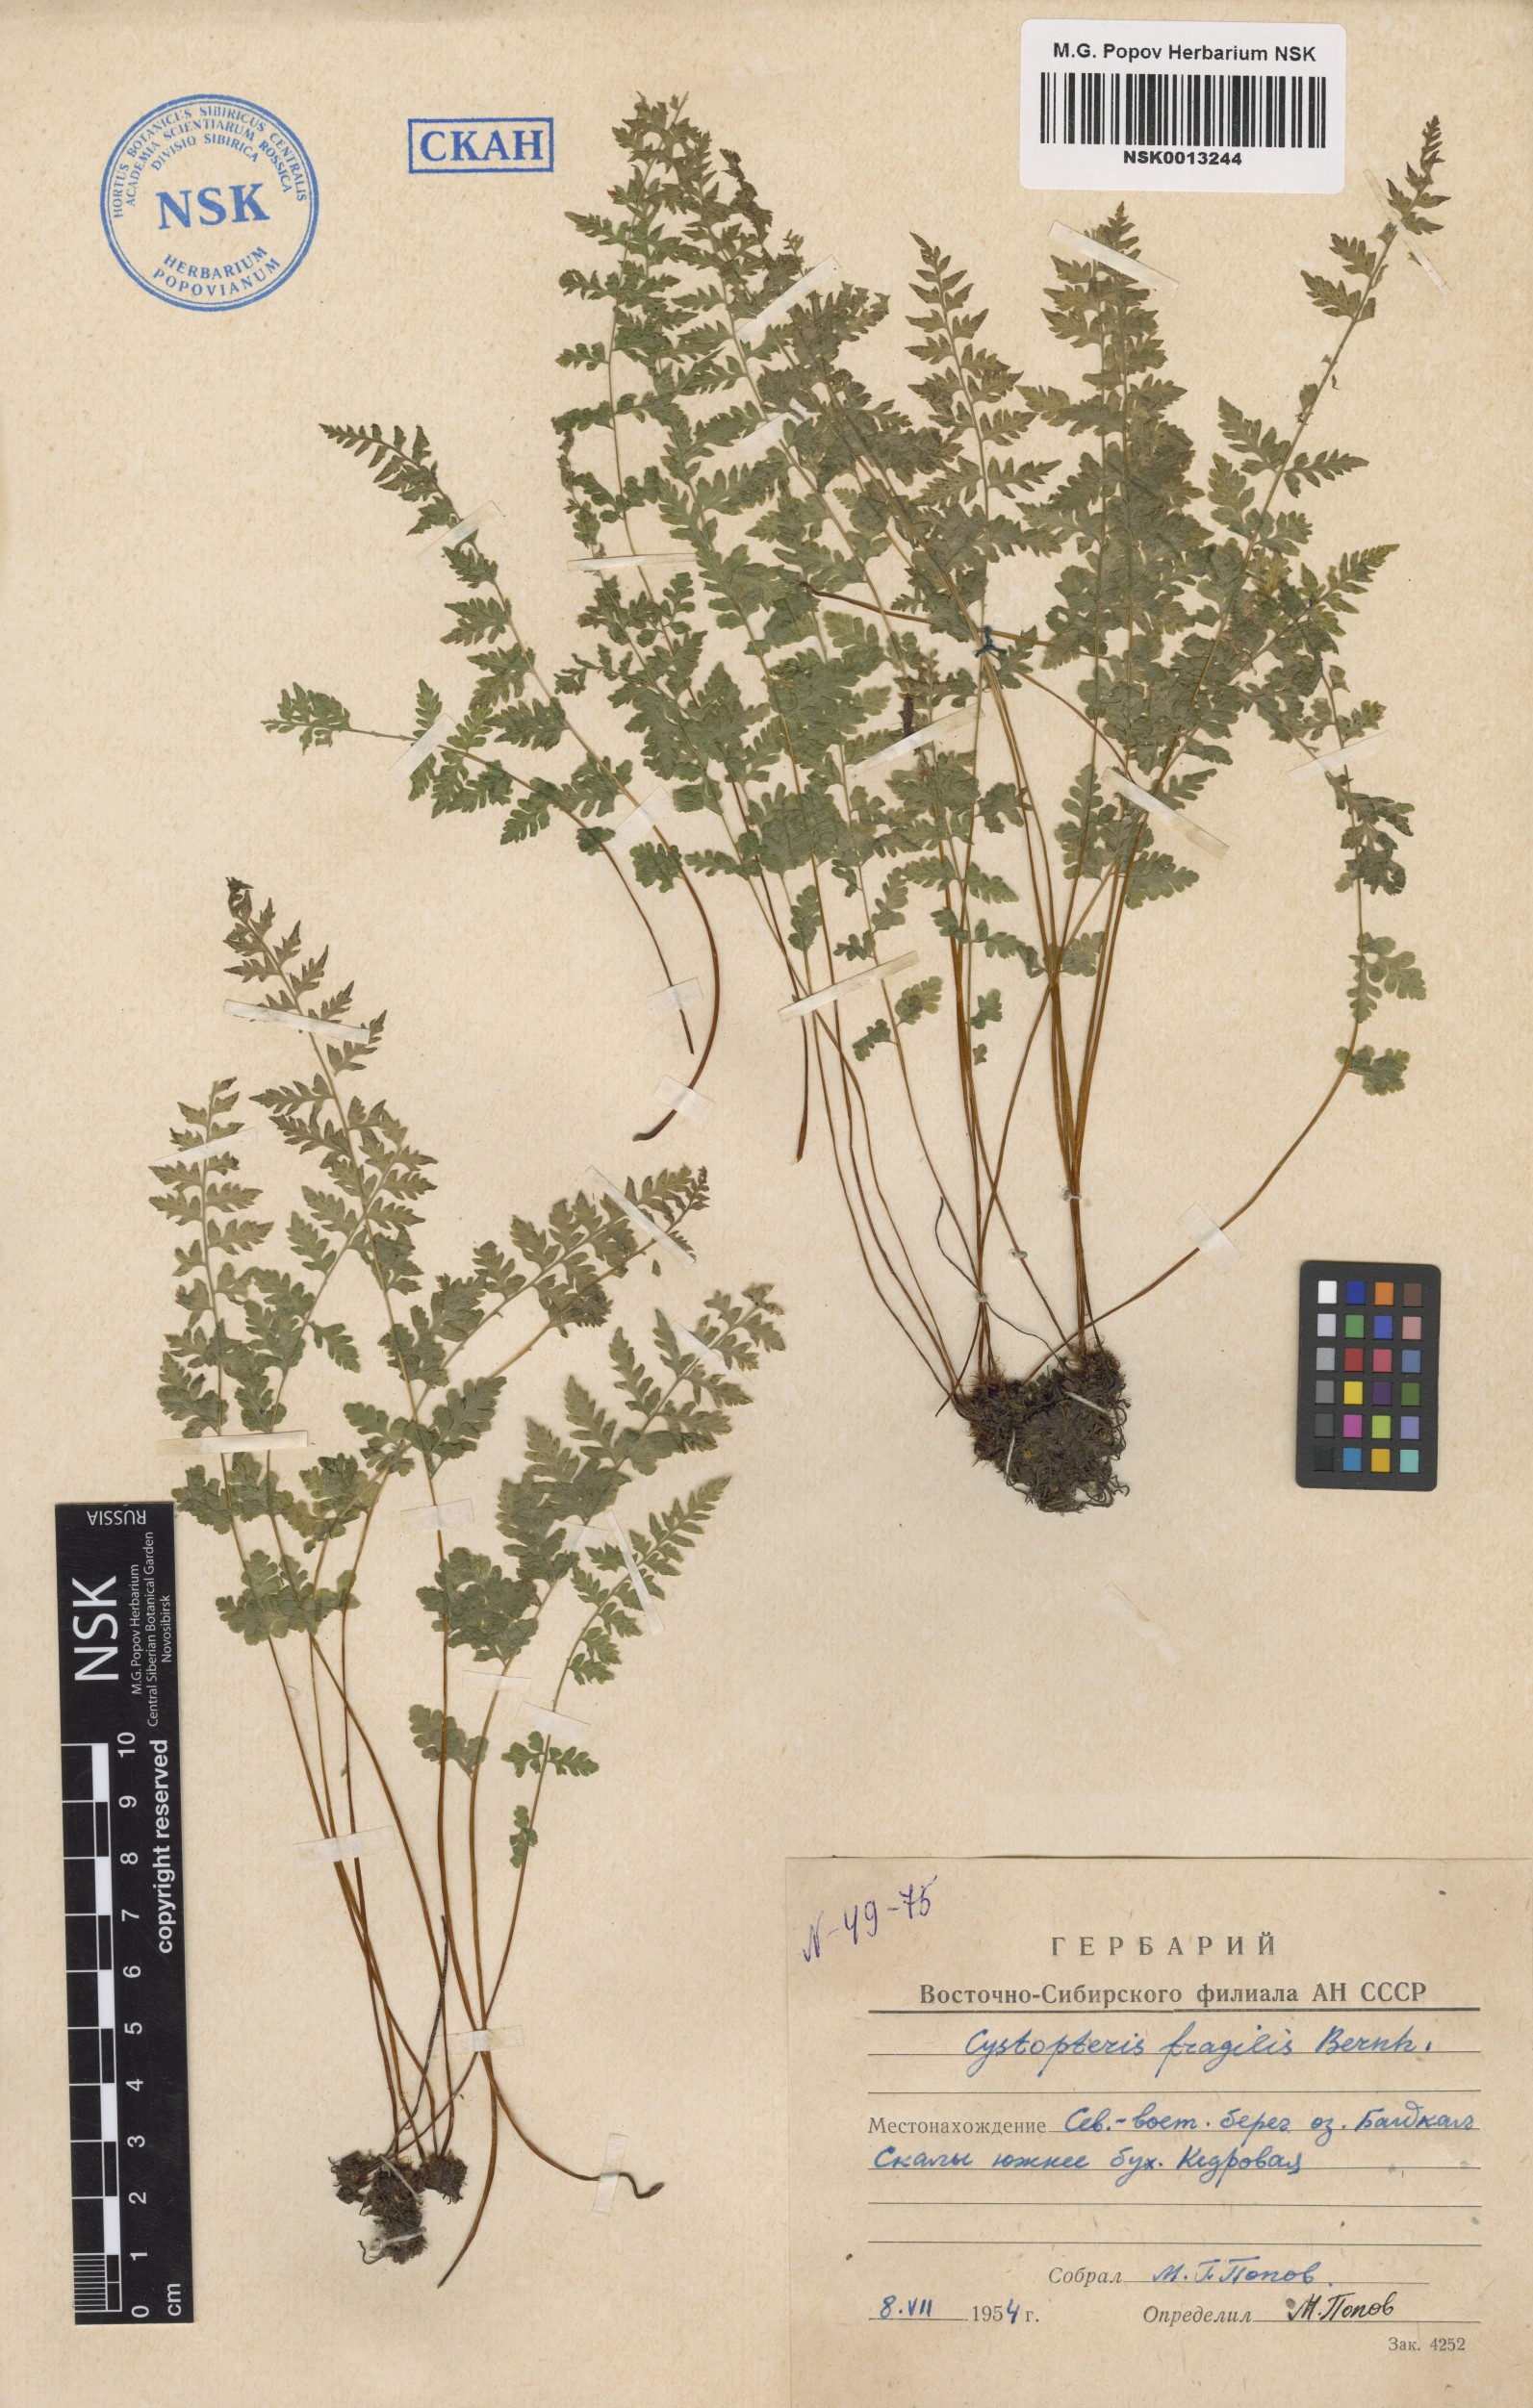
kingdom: Plantae
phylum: Tracheophyta
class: Polypodiopsida
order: Polypodiales
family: Cystopteridaceae
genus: Cystopteris
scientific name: Cystopteris fragilis
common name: Brittle bladder fern
